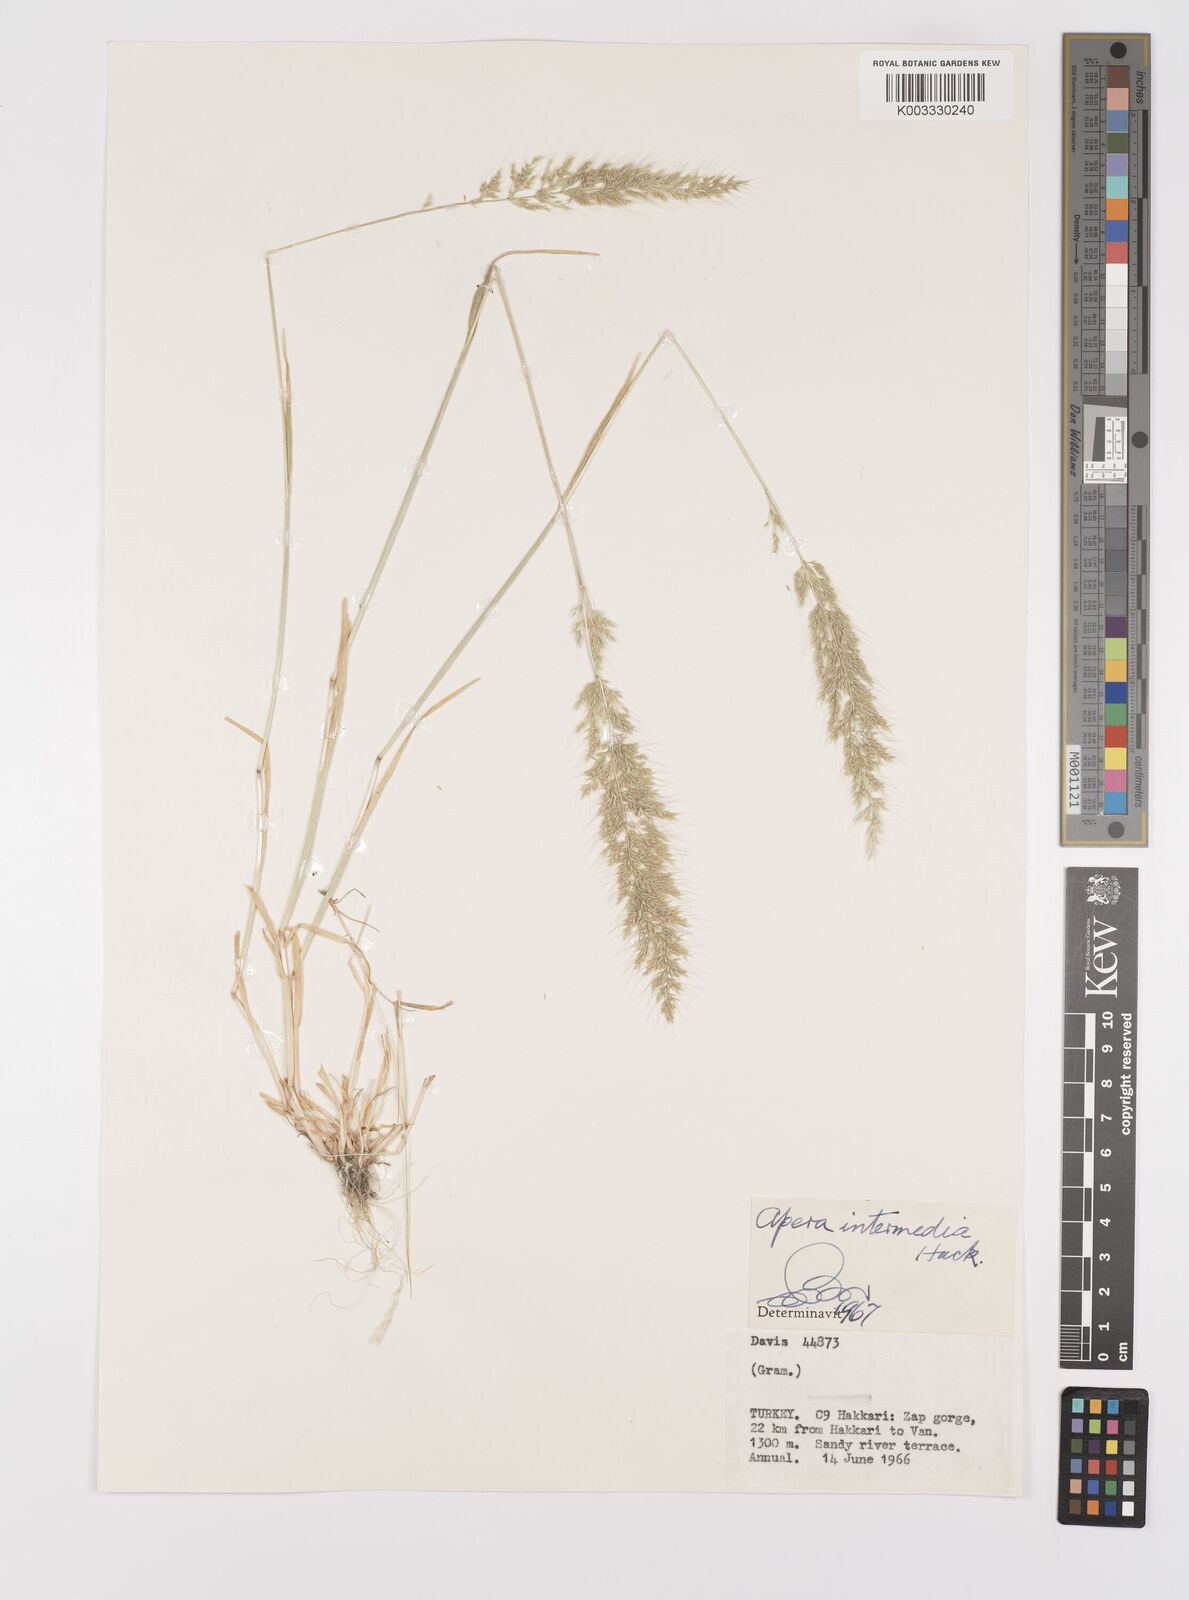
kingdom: Plantae
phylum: Tracheophyta
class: Liliopsida
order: Poales
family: Poaceae
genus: Apera
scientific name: Apera intermedia
